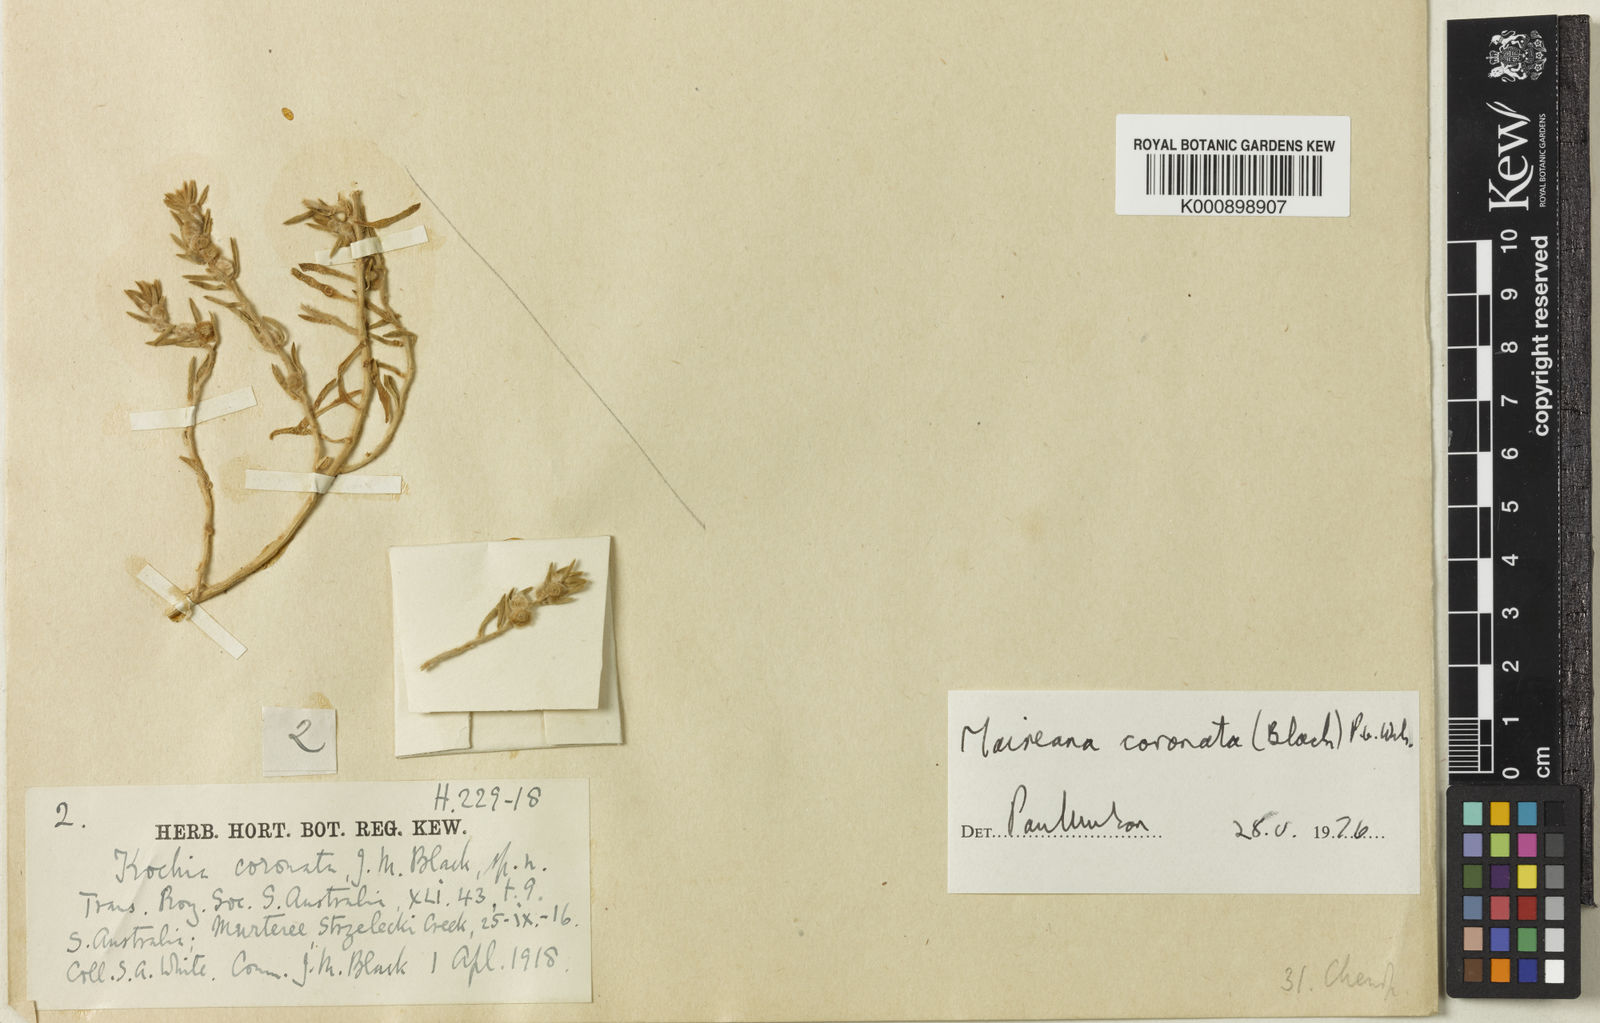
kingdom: Plantae
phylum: Tracheophyta
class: Magnoliopsida
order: Caryophyllales
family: Amaranthaceae
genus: Maireana
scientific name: Maireana coronata
